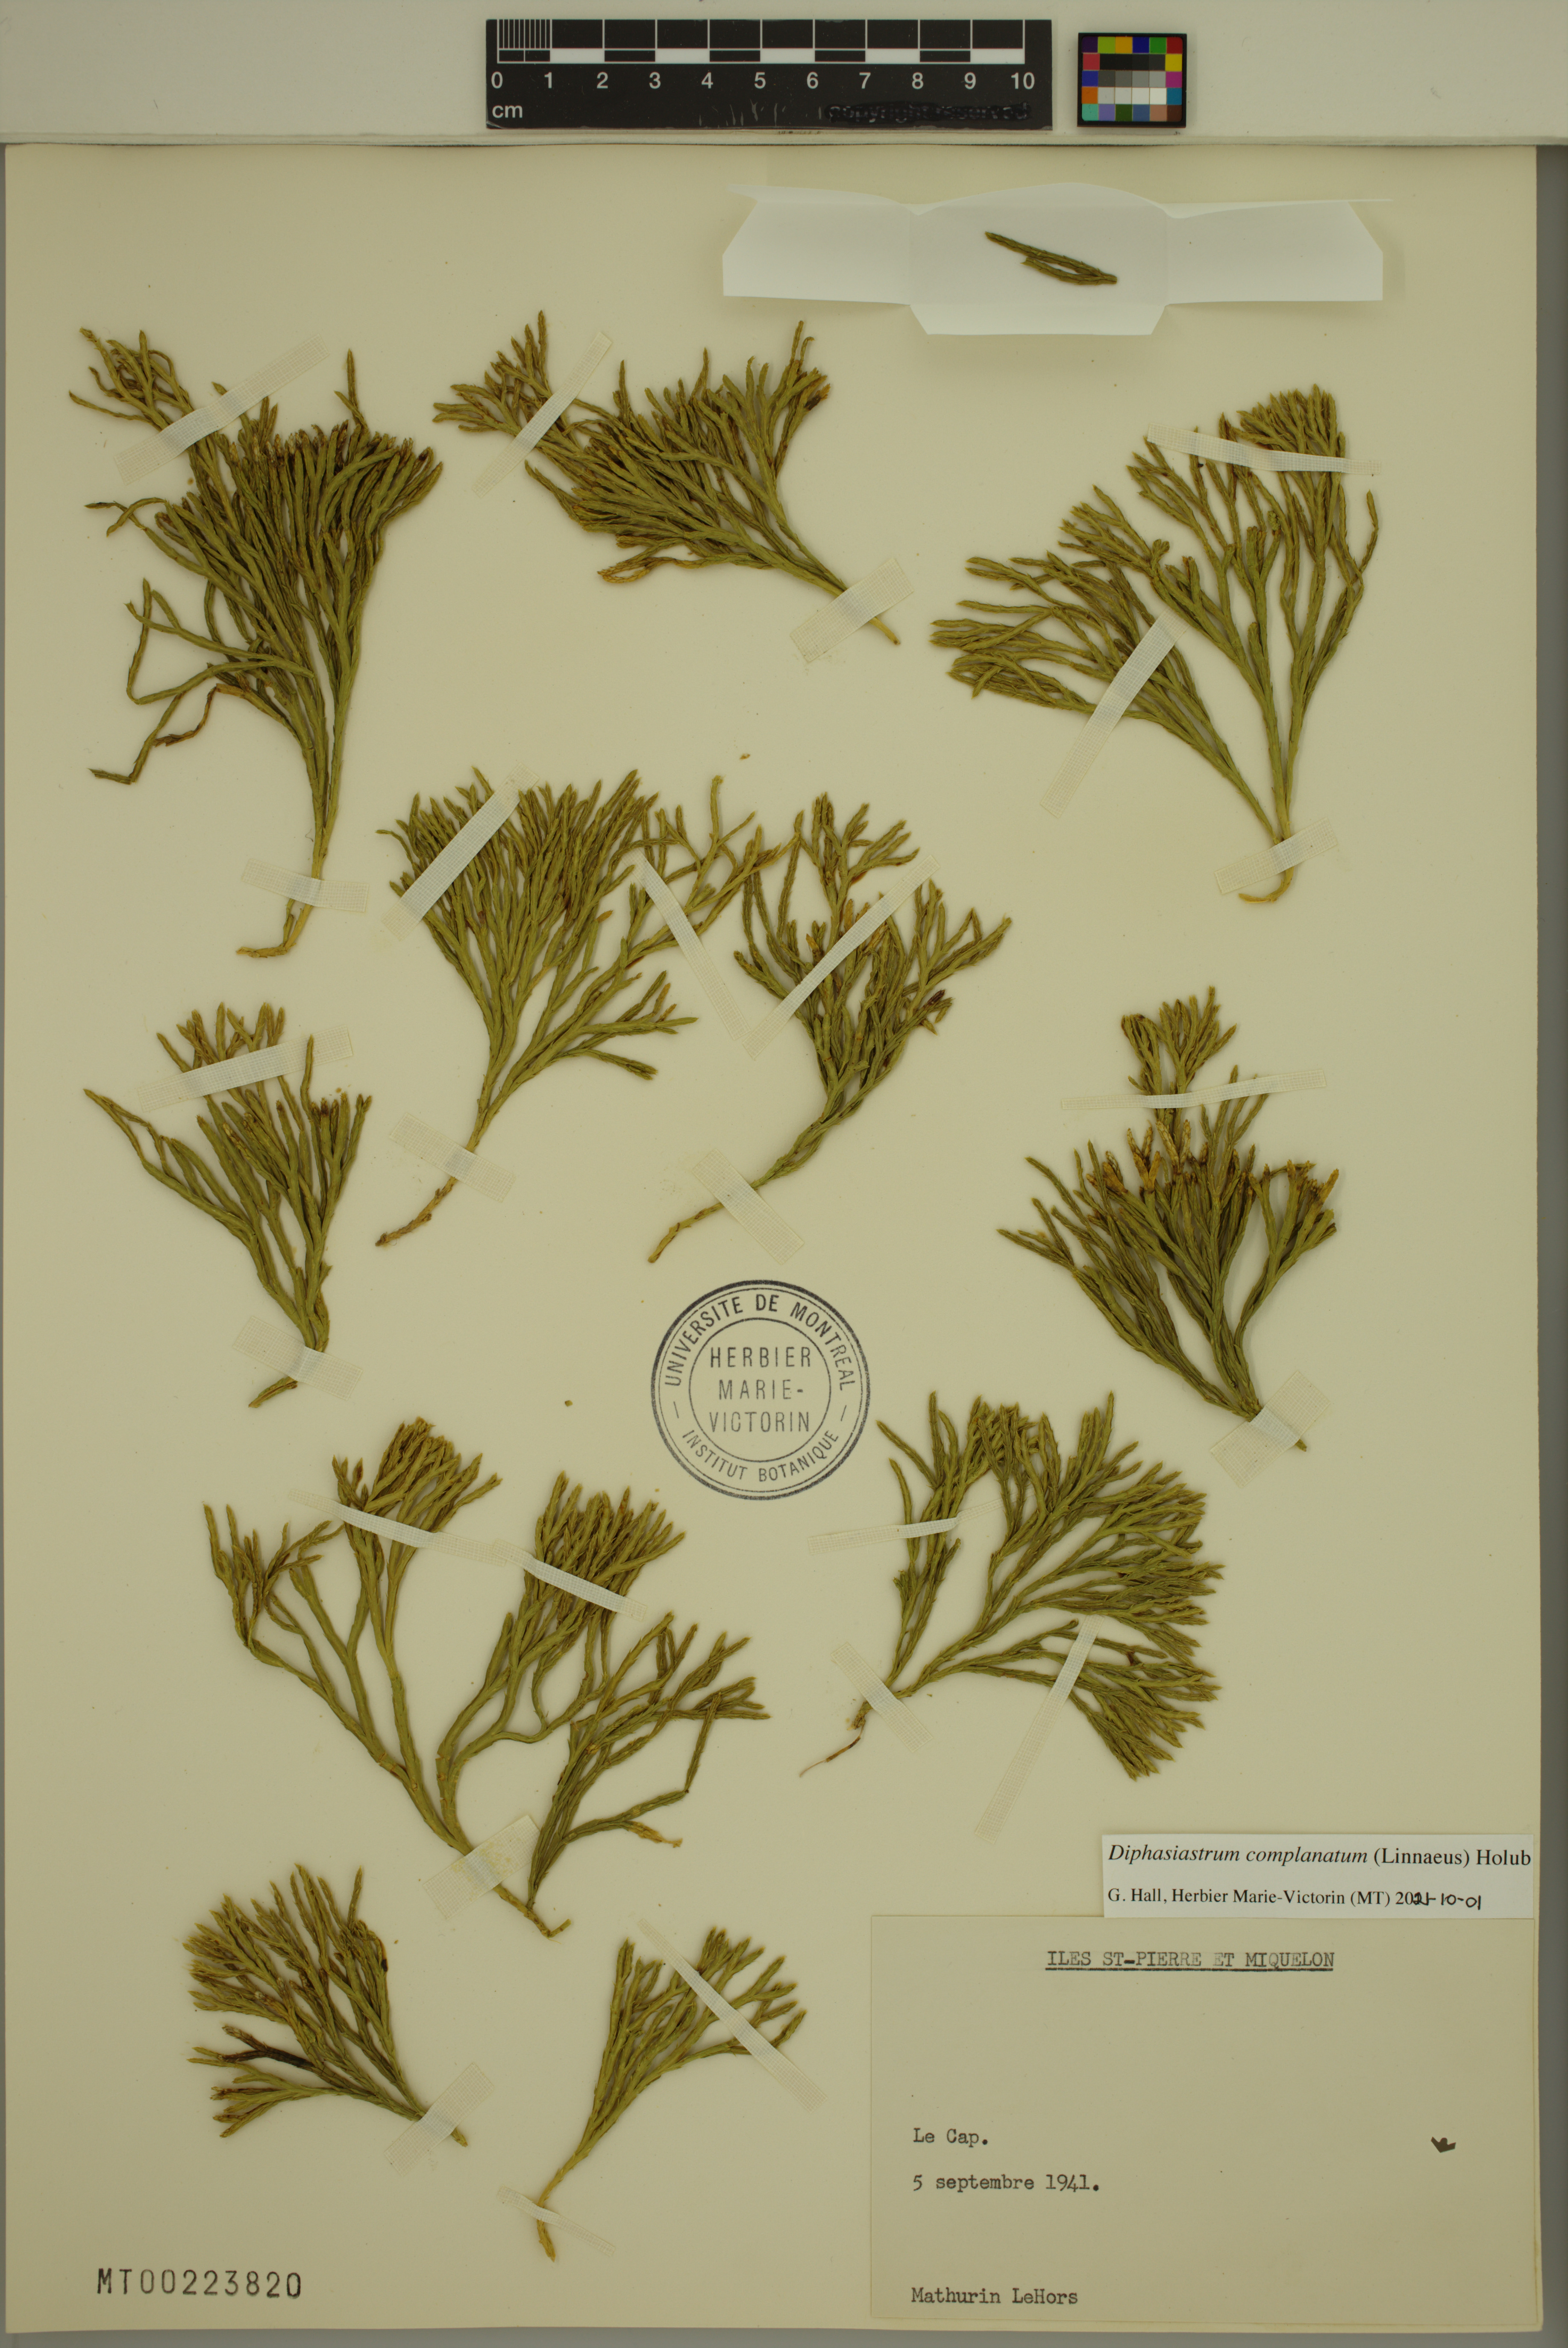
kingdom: Plantae
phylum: Tracheophyta
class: Lycopodiopsida
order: Lycopodiales
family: Lycopodiaceae
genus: Diphasiastrum
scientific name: Diphasiastrum complanatum
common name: Northern running-pine
